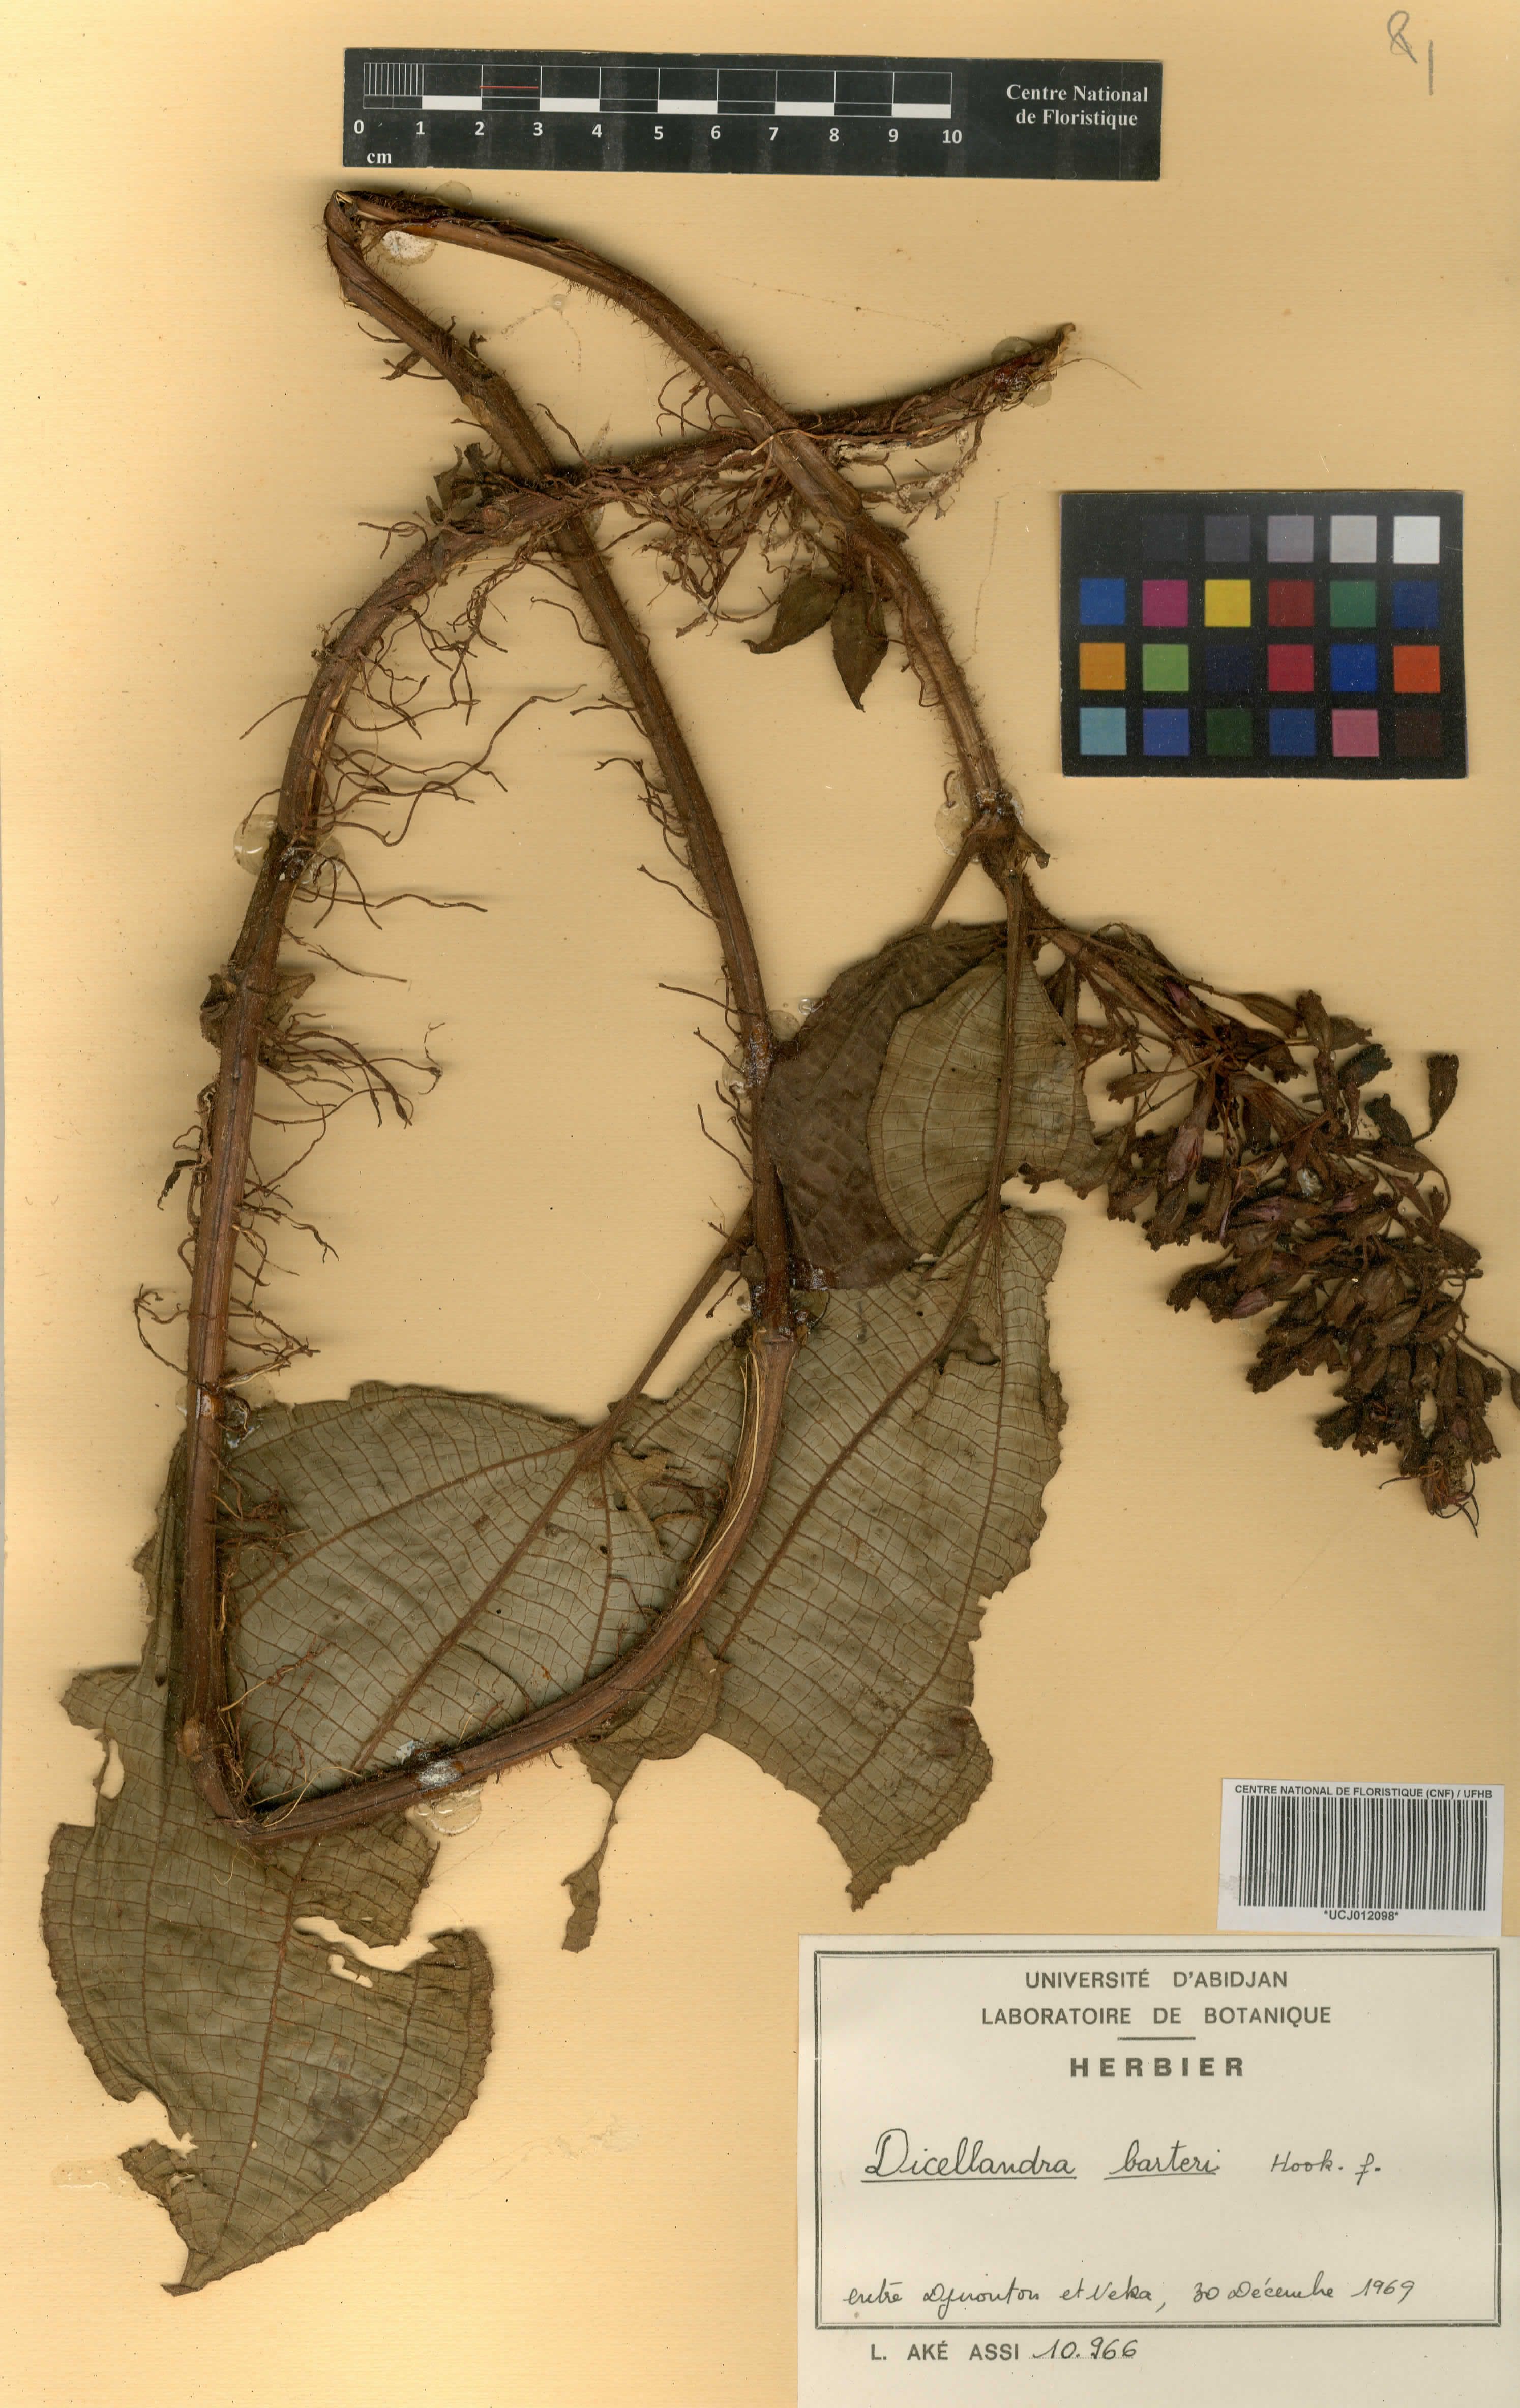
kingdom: Plantae
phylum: Tracheophyta
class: Magnoliopsida
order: Myrtales
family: Melastomataceae
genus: Dicellandra
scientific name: Dicellandra barteri
